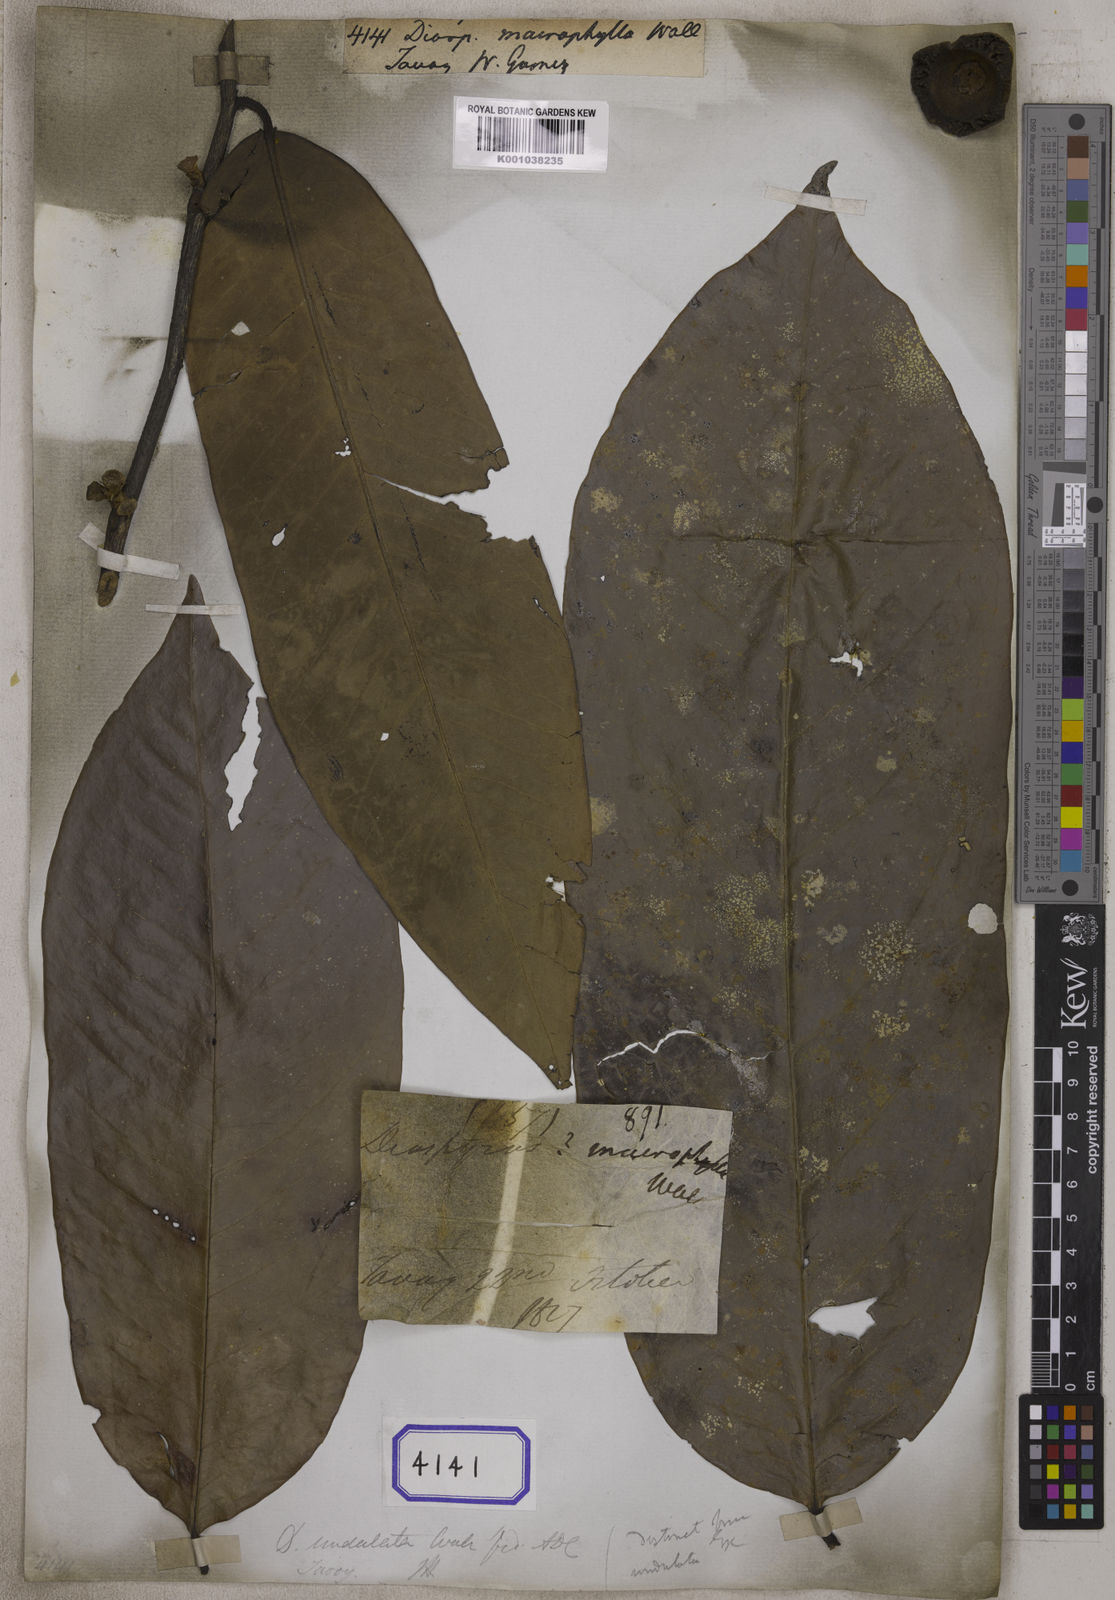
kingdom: Plantae
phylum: Tracheophyta
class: Magnoliopsida
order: Ericales
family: Ebenaceae
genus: Diospyros
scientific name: Diospyros
